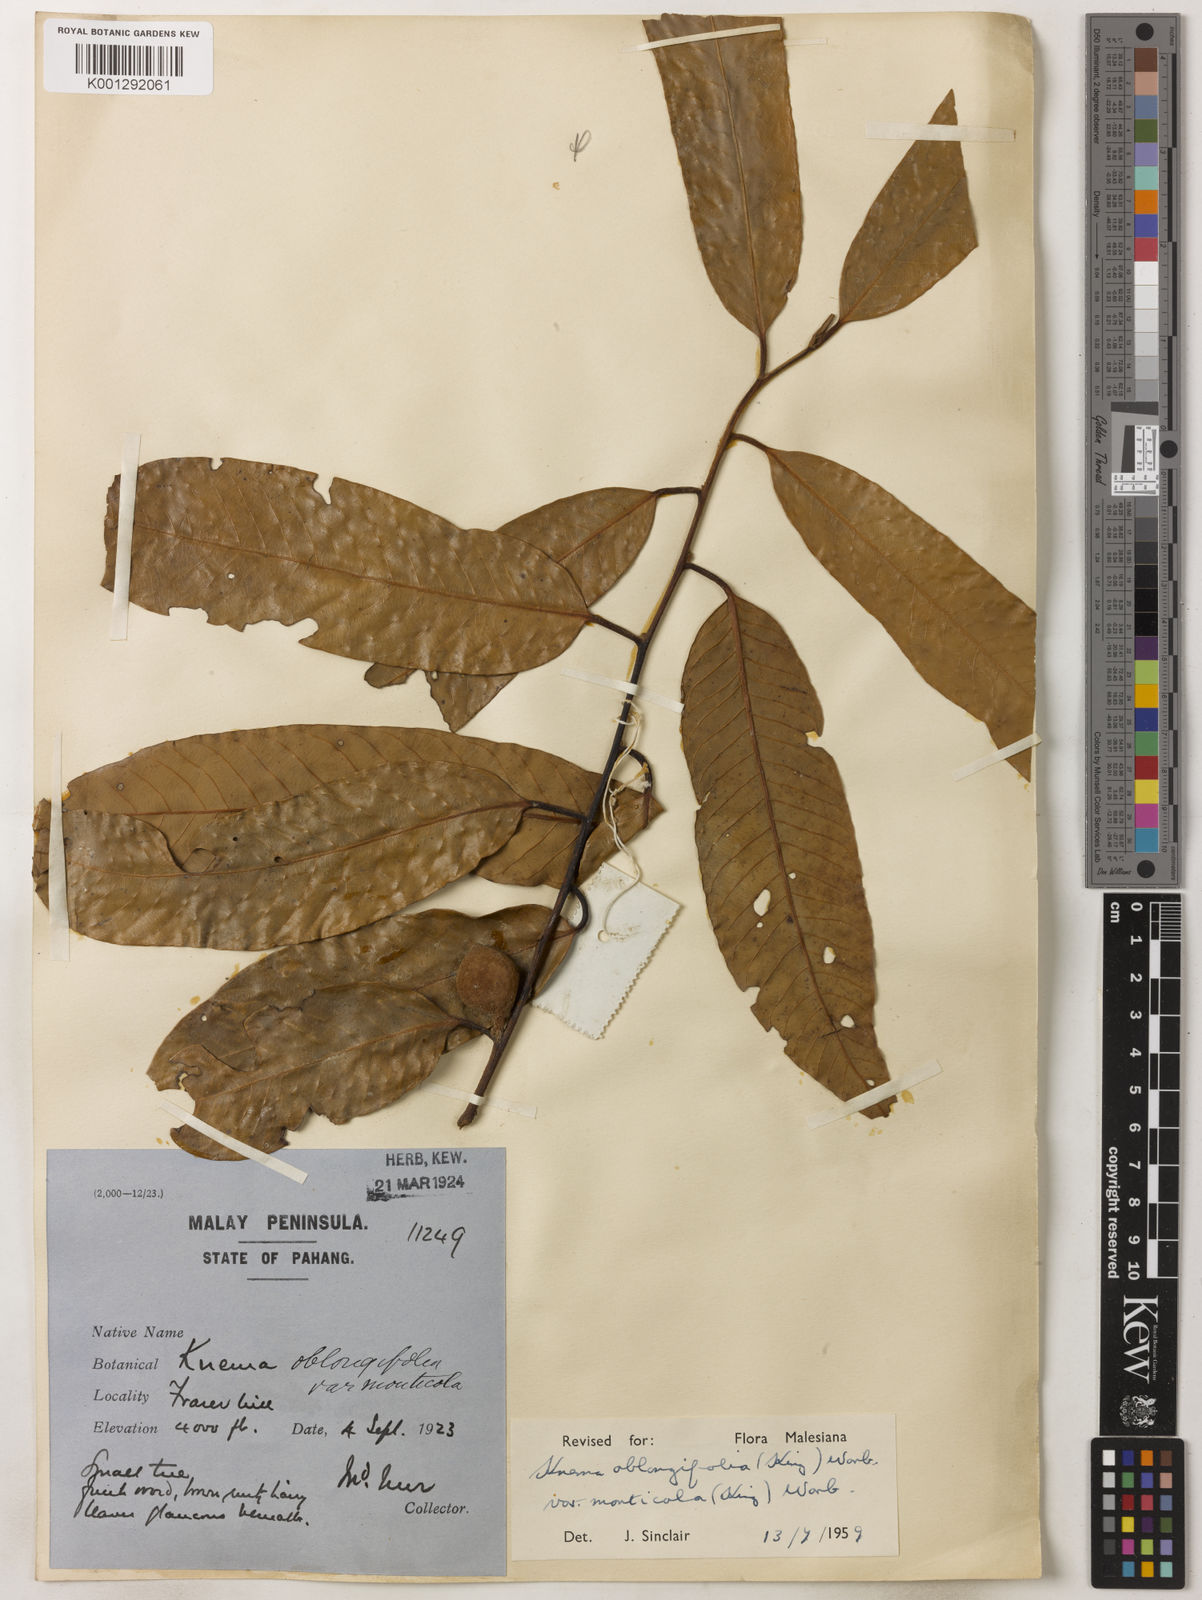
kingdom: Plantae
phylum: Tracheophyta
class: Magnoliopsida
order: Magnoliales
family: Myristicaceae
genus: Knema
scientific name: Knema
